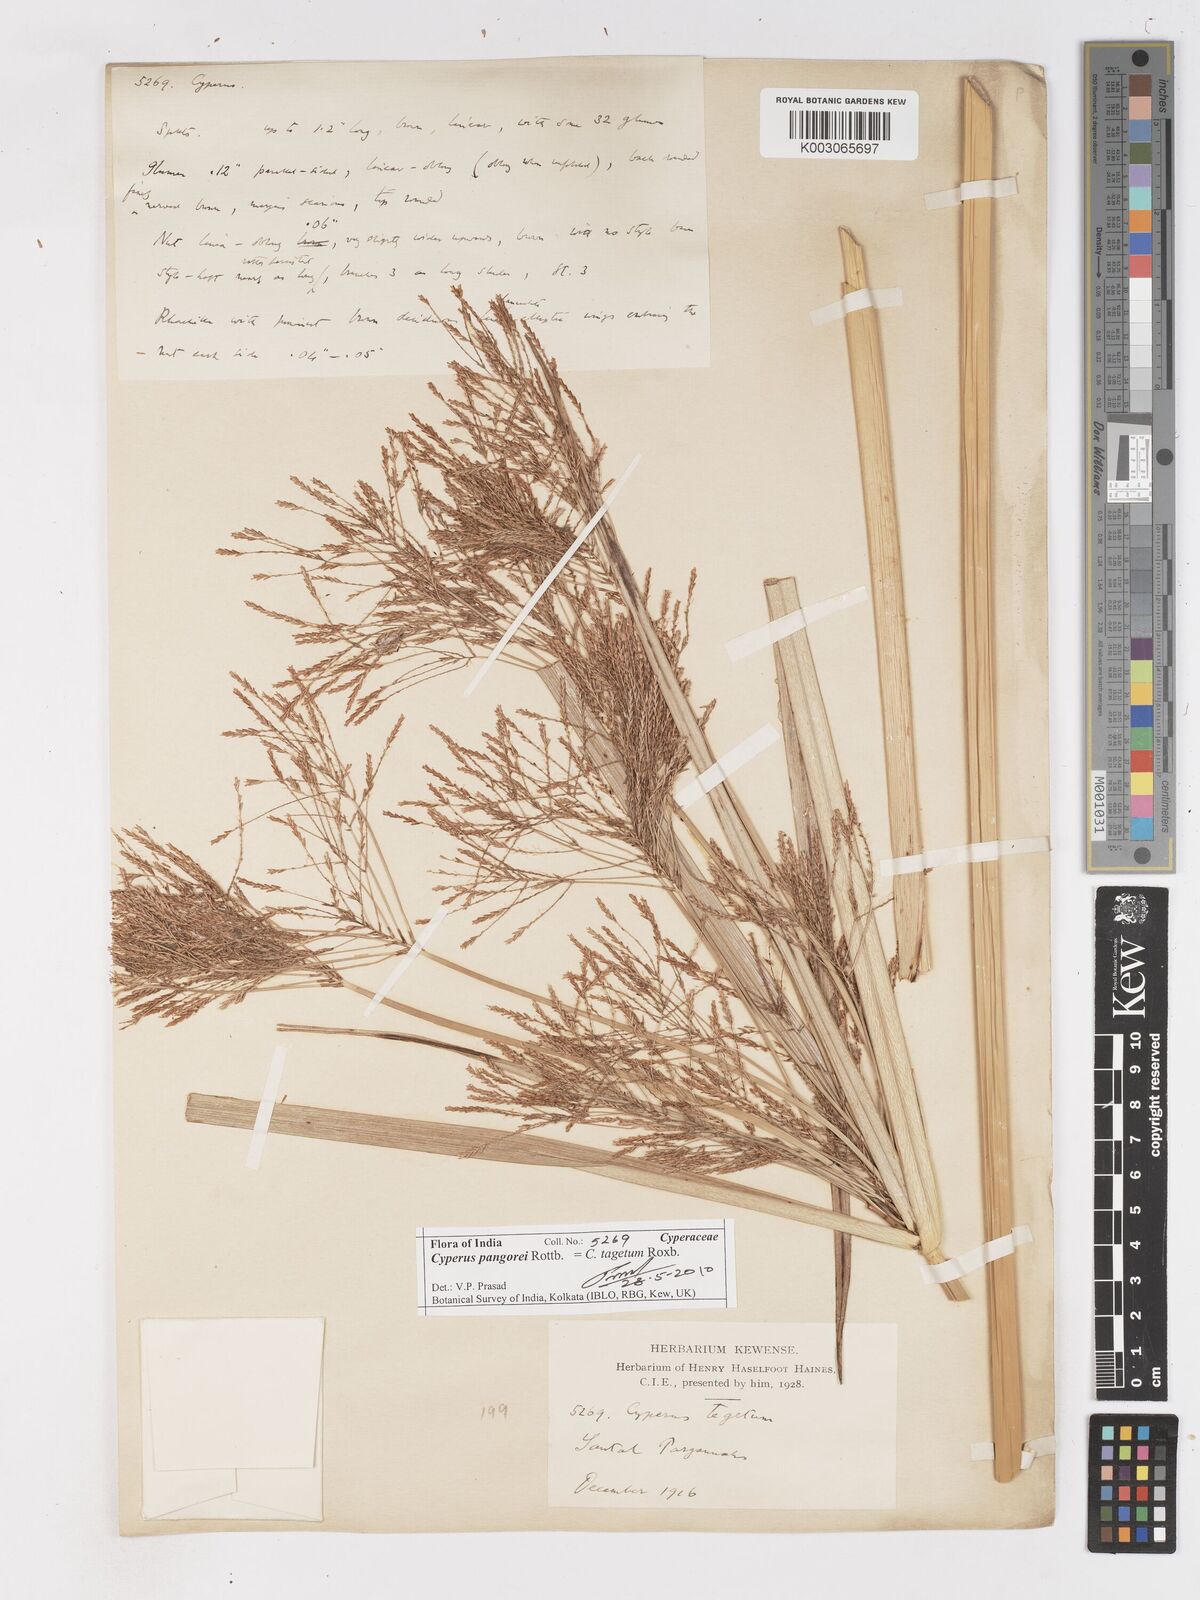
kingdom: Plantae
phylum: Tracheophyta
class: Liliopsida
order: Poales
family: Cyperaceae
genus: Cyperus
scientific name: Cyperus pangorei
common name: Mat sedge
